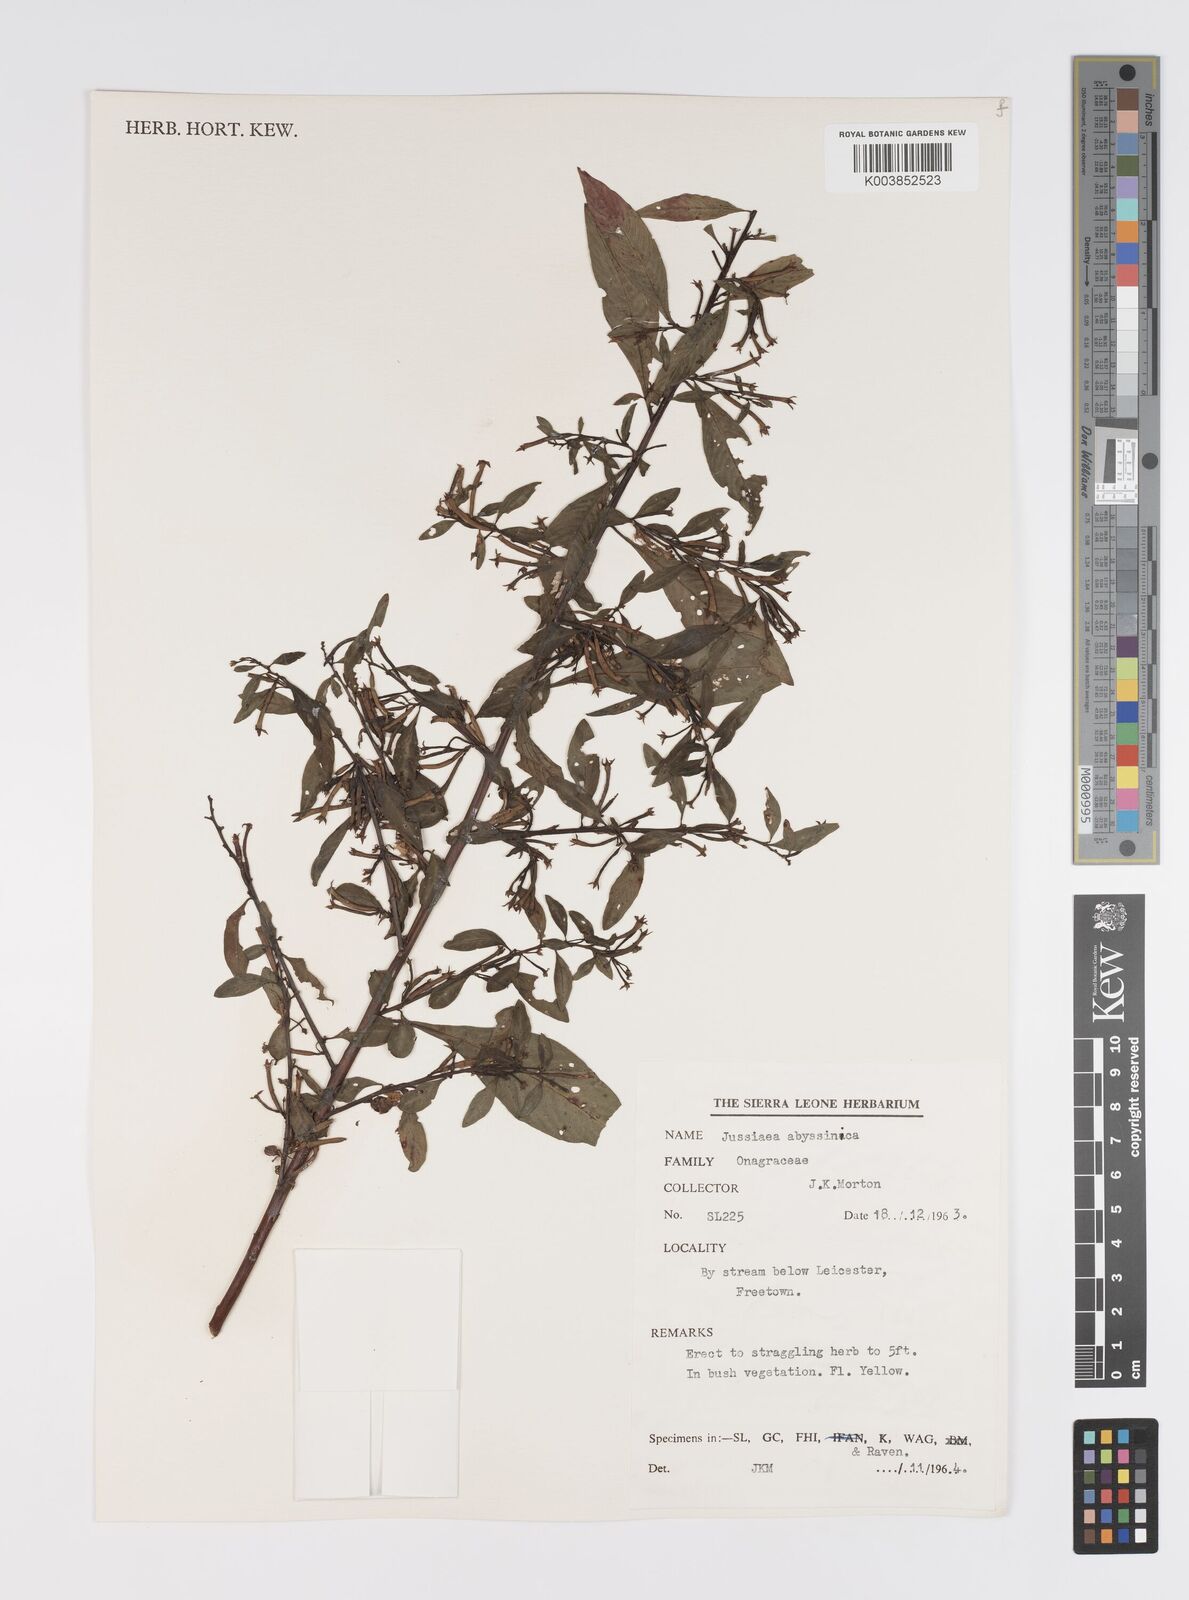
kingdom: Plantae
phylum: Tracheophyta
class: Magnoliopsida
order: Myrtales
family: Onagraceae
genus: Ludwigia
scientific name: Ludwigia abyssinica
